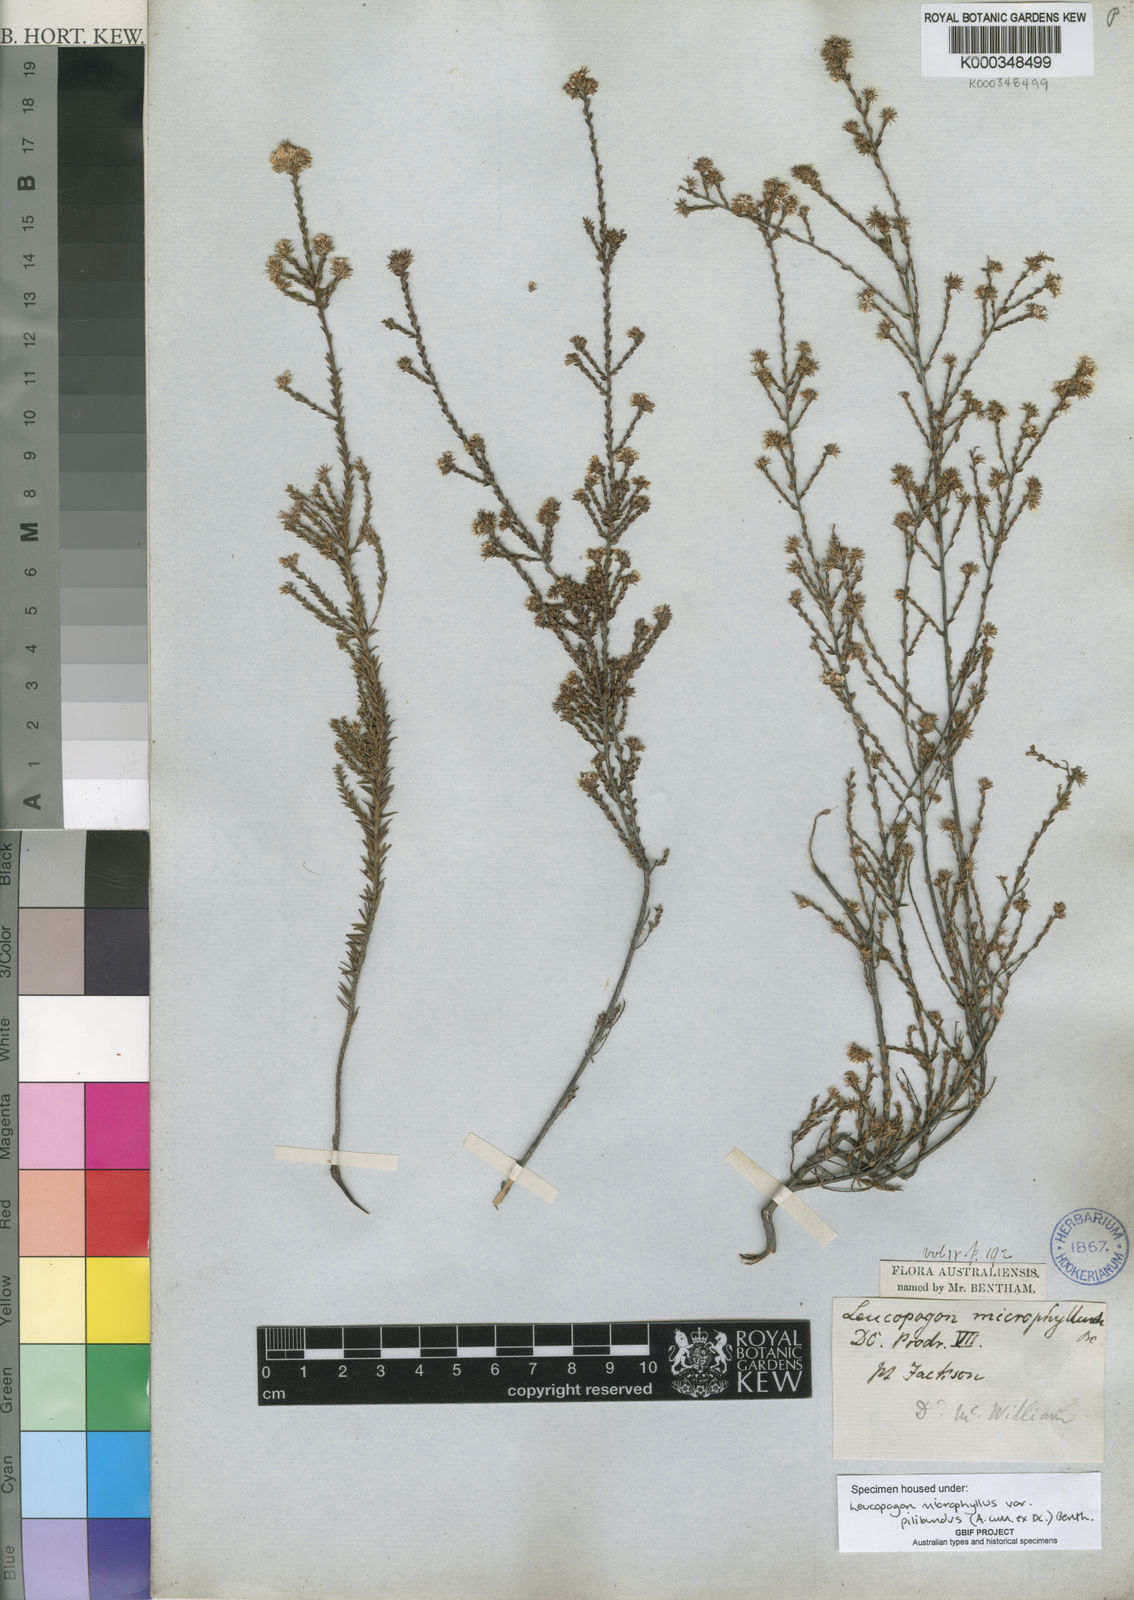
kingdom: Plantae
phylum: Tracheophyta
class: Magnoliopsida
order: Ericales
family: Ericaceae
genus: Leucopogon
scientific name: Leucopogon microphyllus
